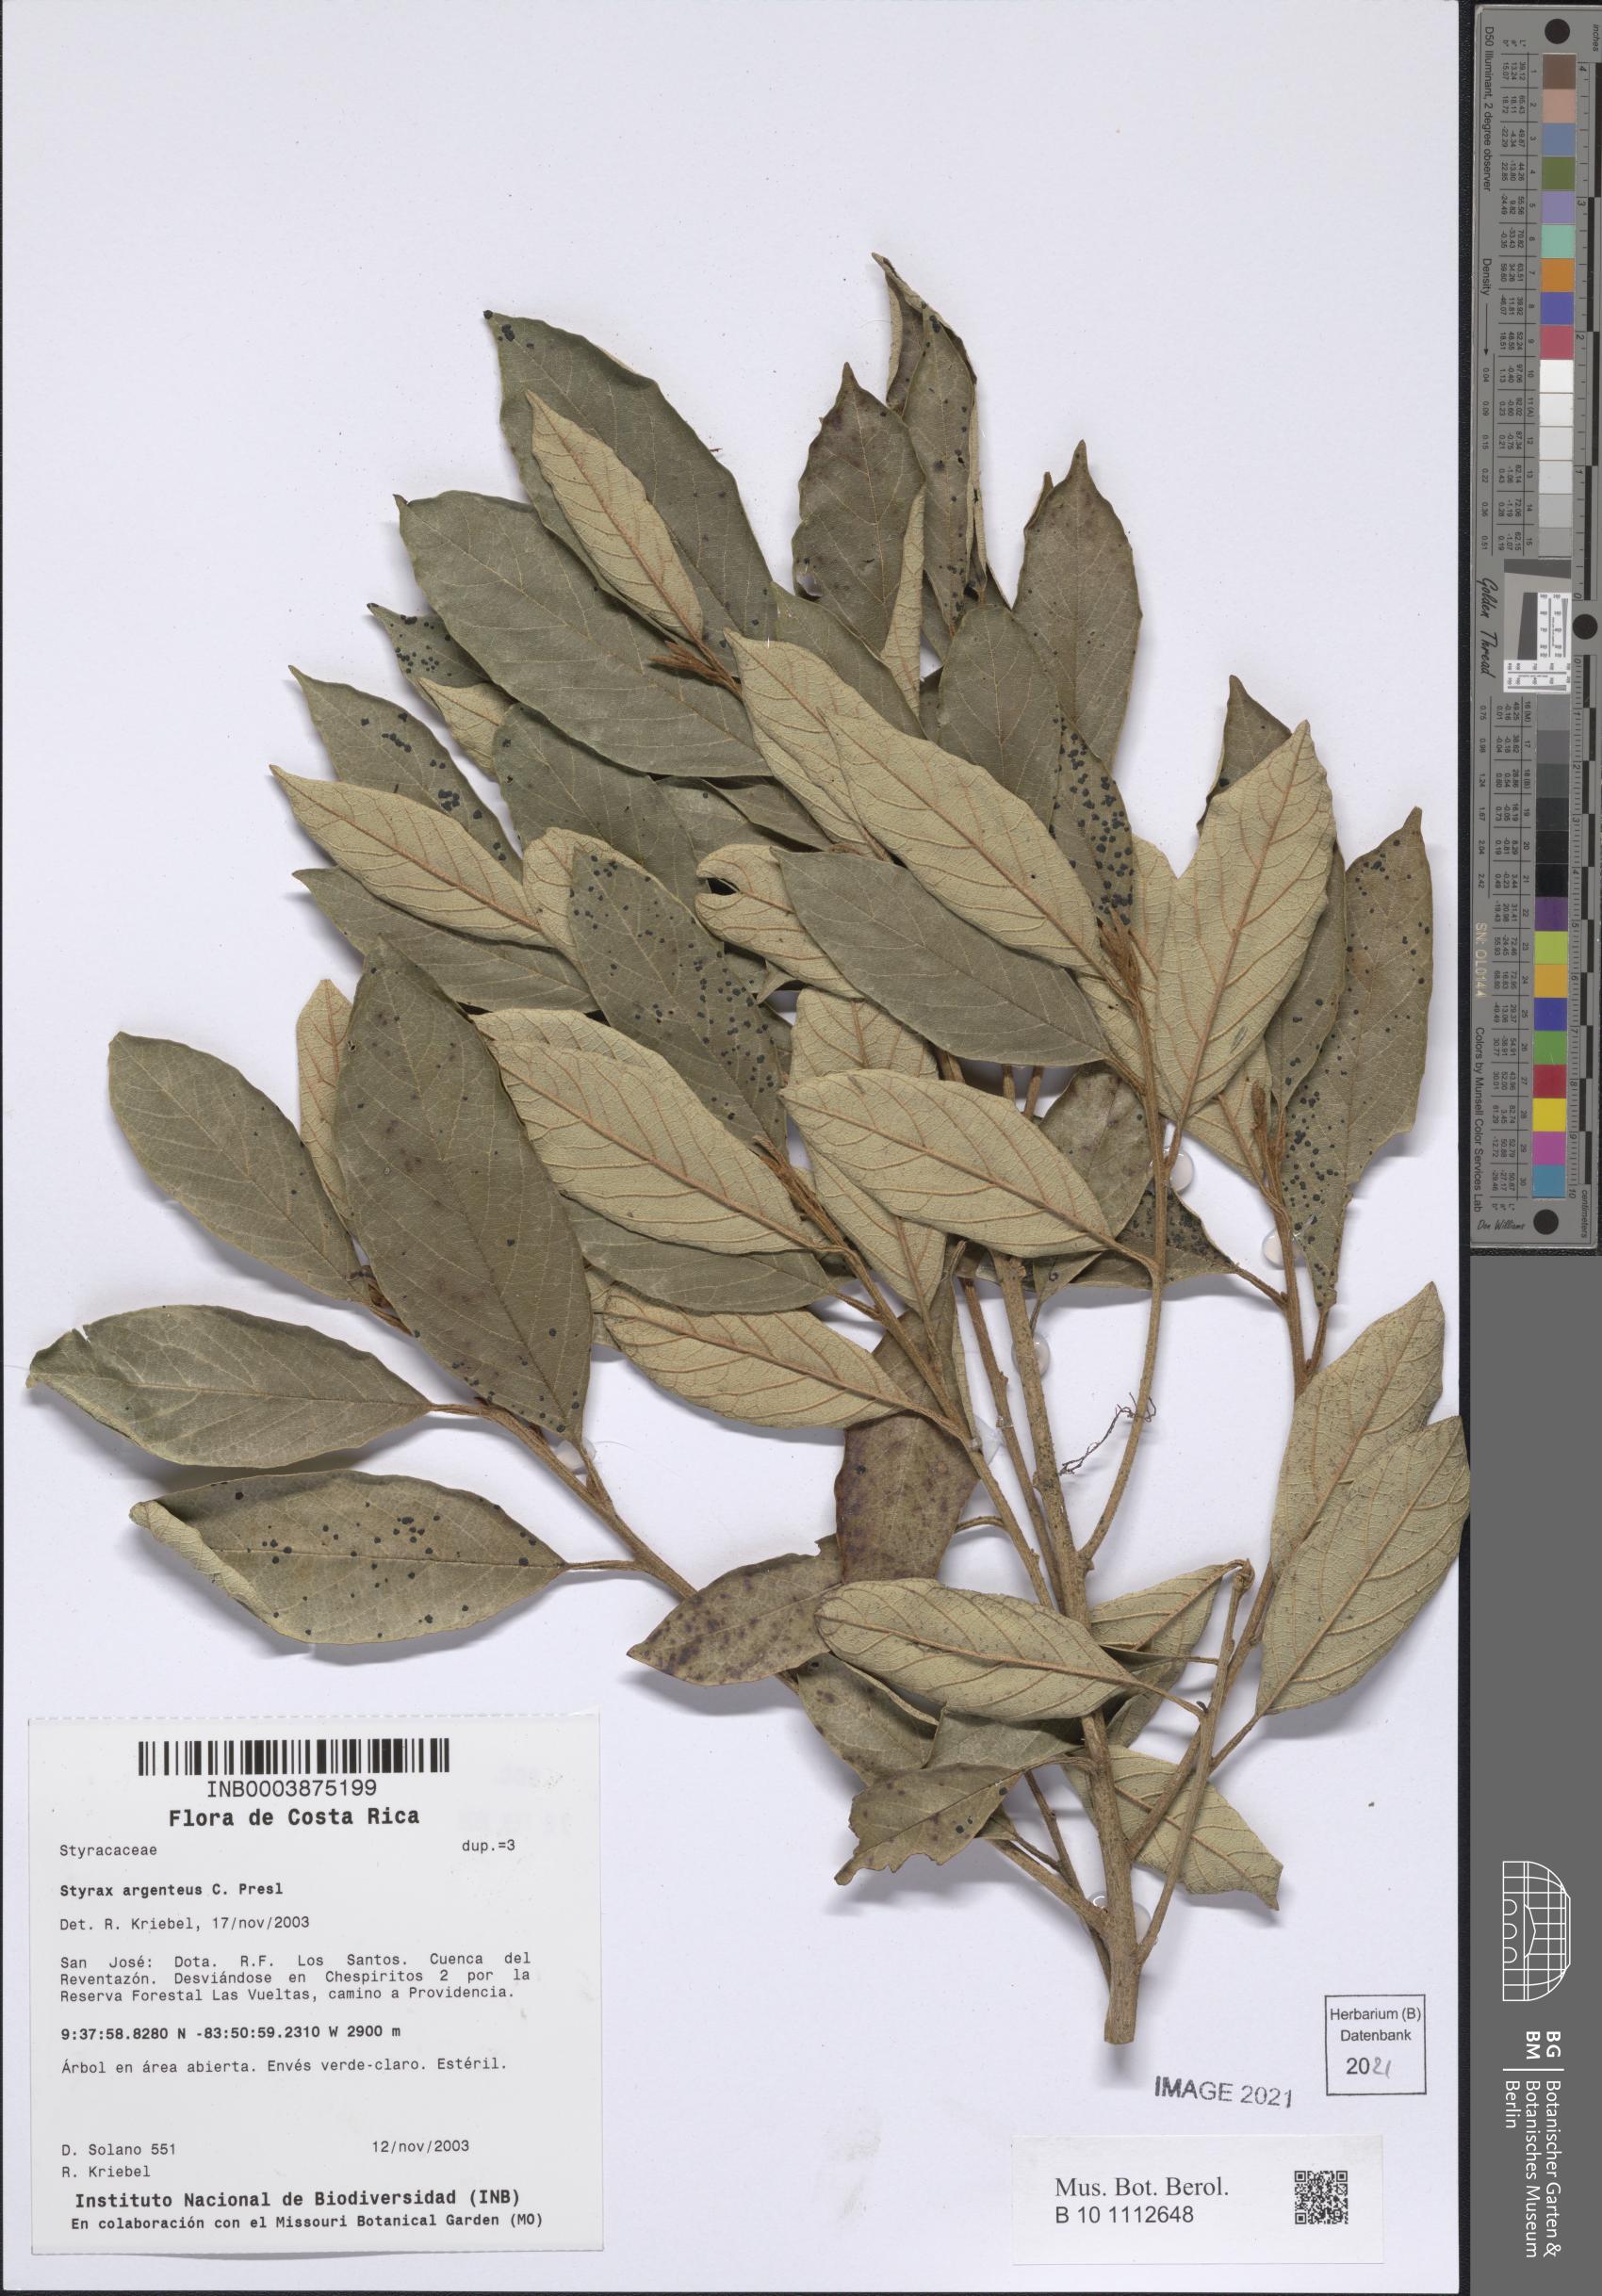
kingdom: Plantae
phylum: Tracheophyta
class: Magnoliopsida
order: Ericales
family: Styracaceae
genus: Styrax
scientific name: Styrax warscewiczii
